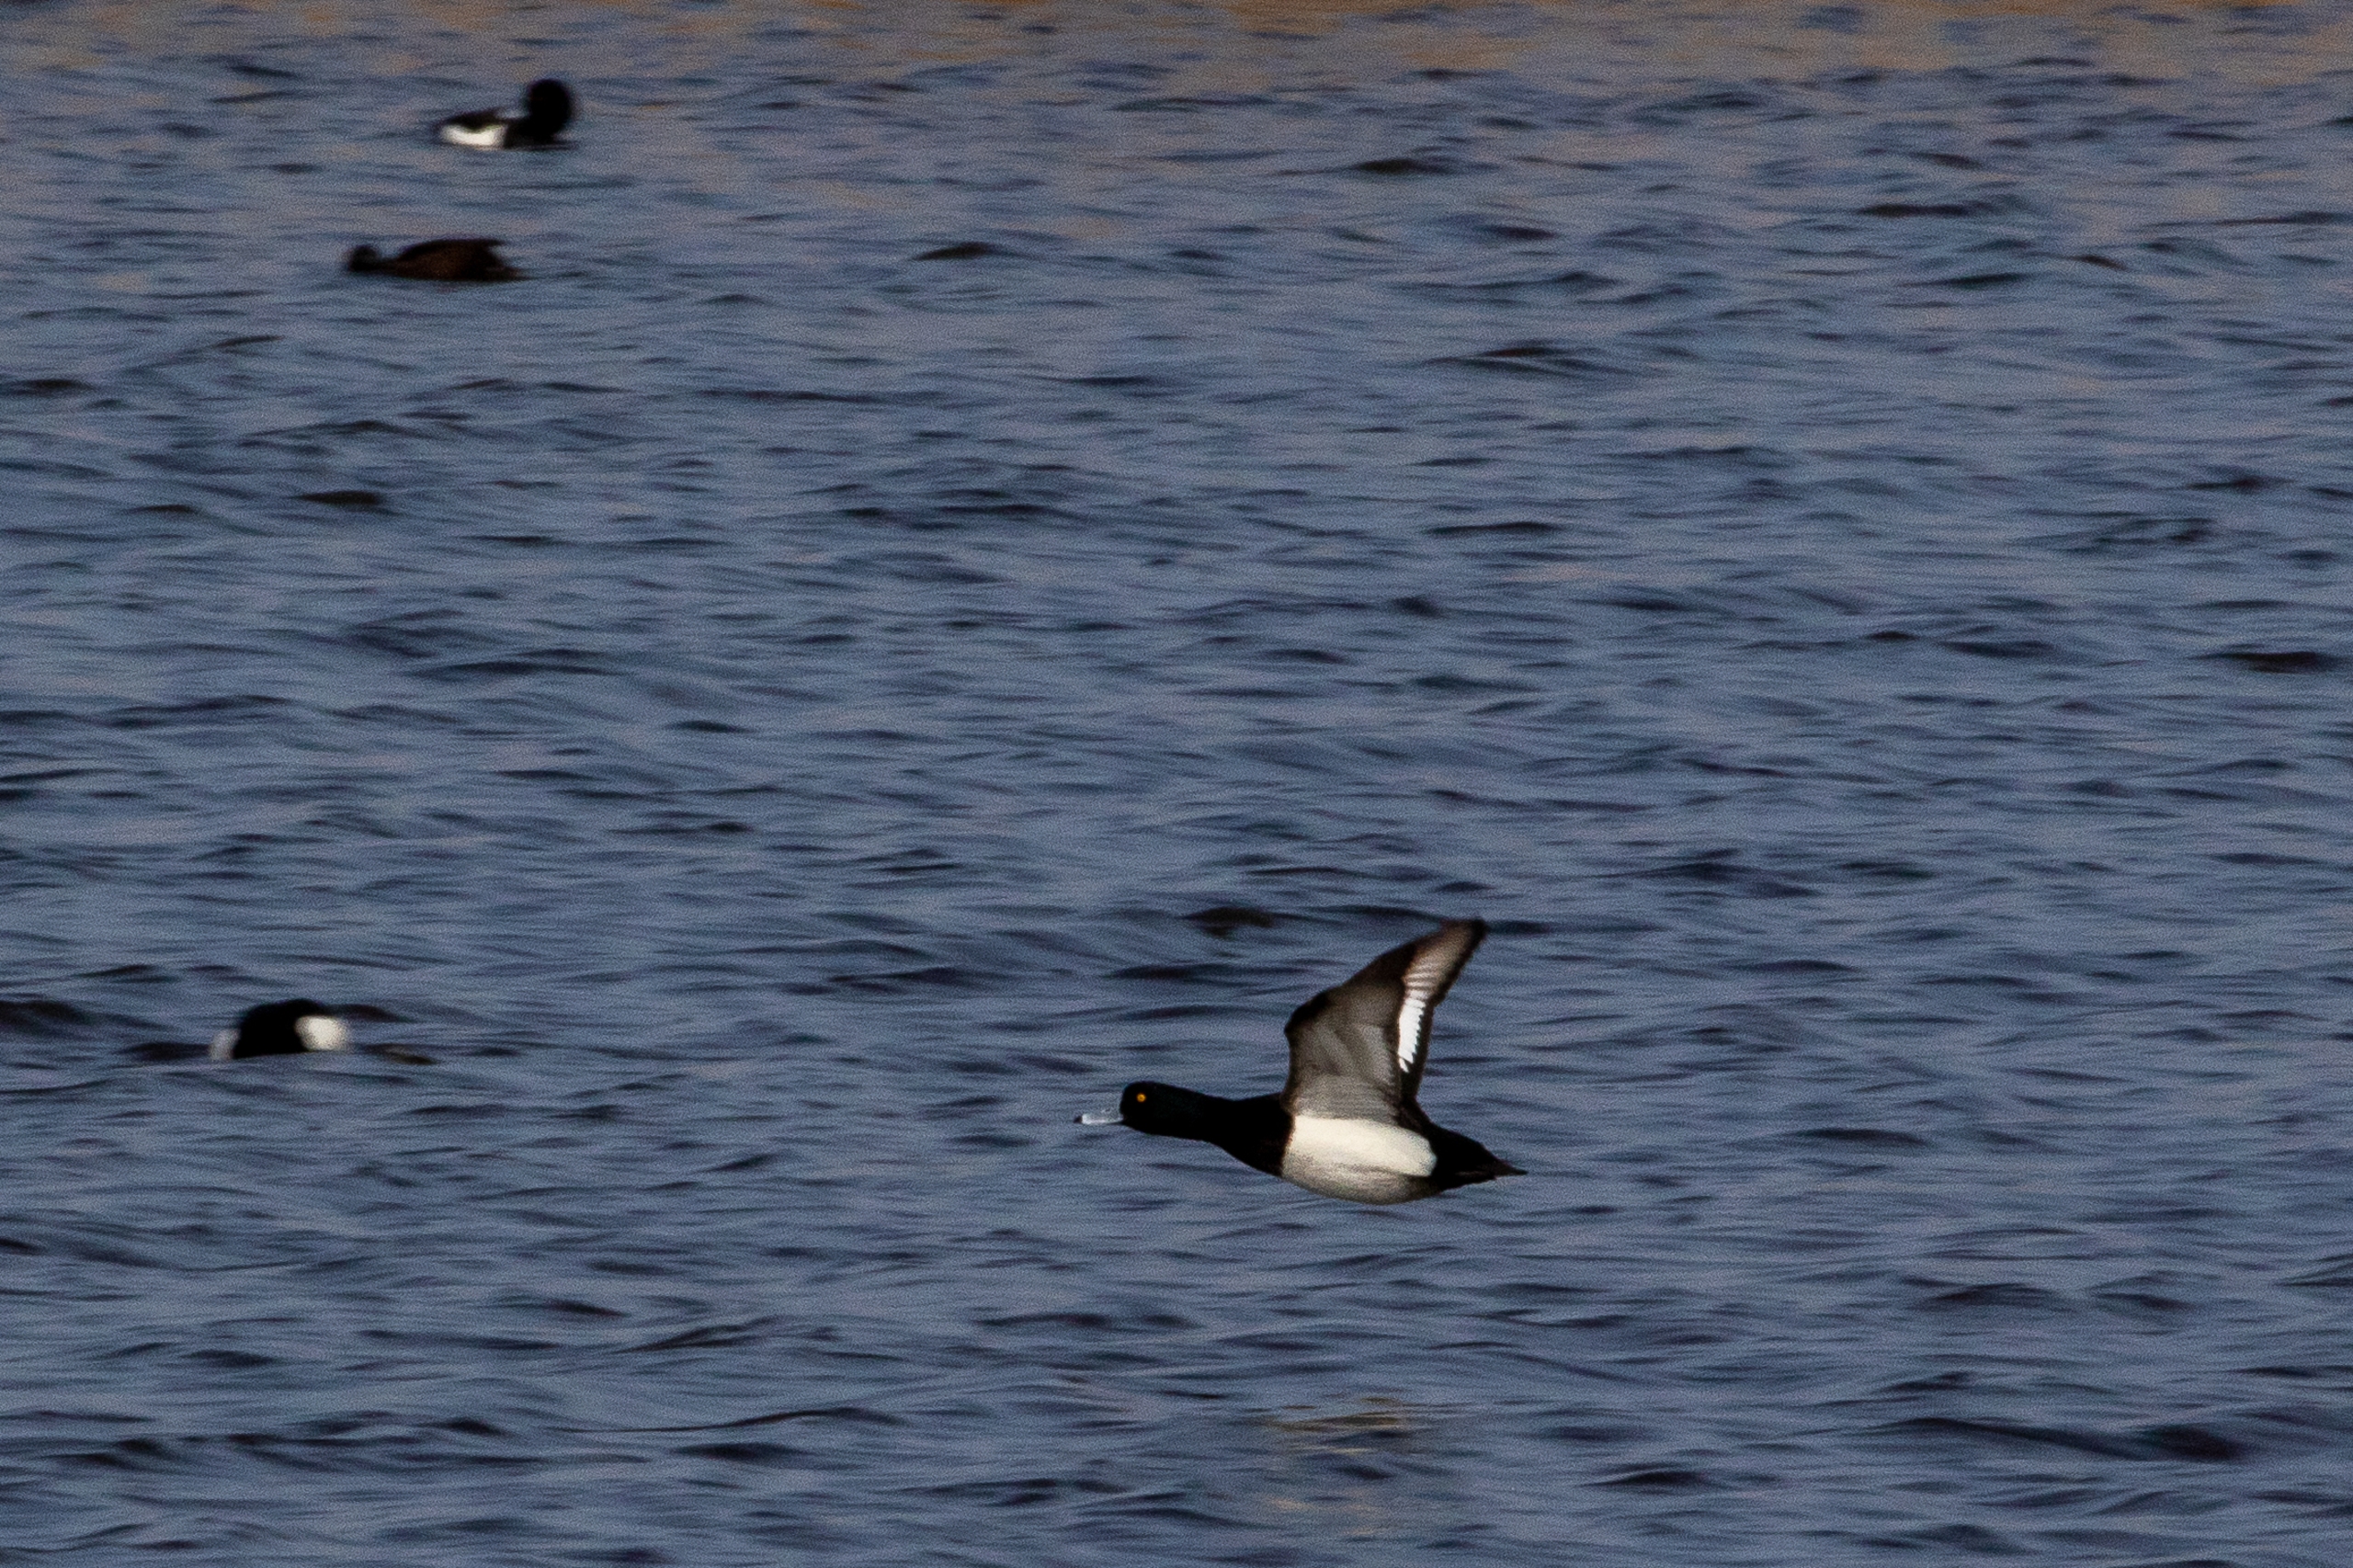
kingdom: Animalia
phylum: Chordata
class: Aves
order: Anseriformes
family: Anatidae
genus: Aythya
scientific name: Aythya fuligula
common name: Troldand
